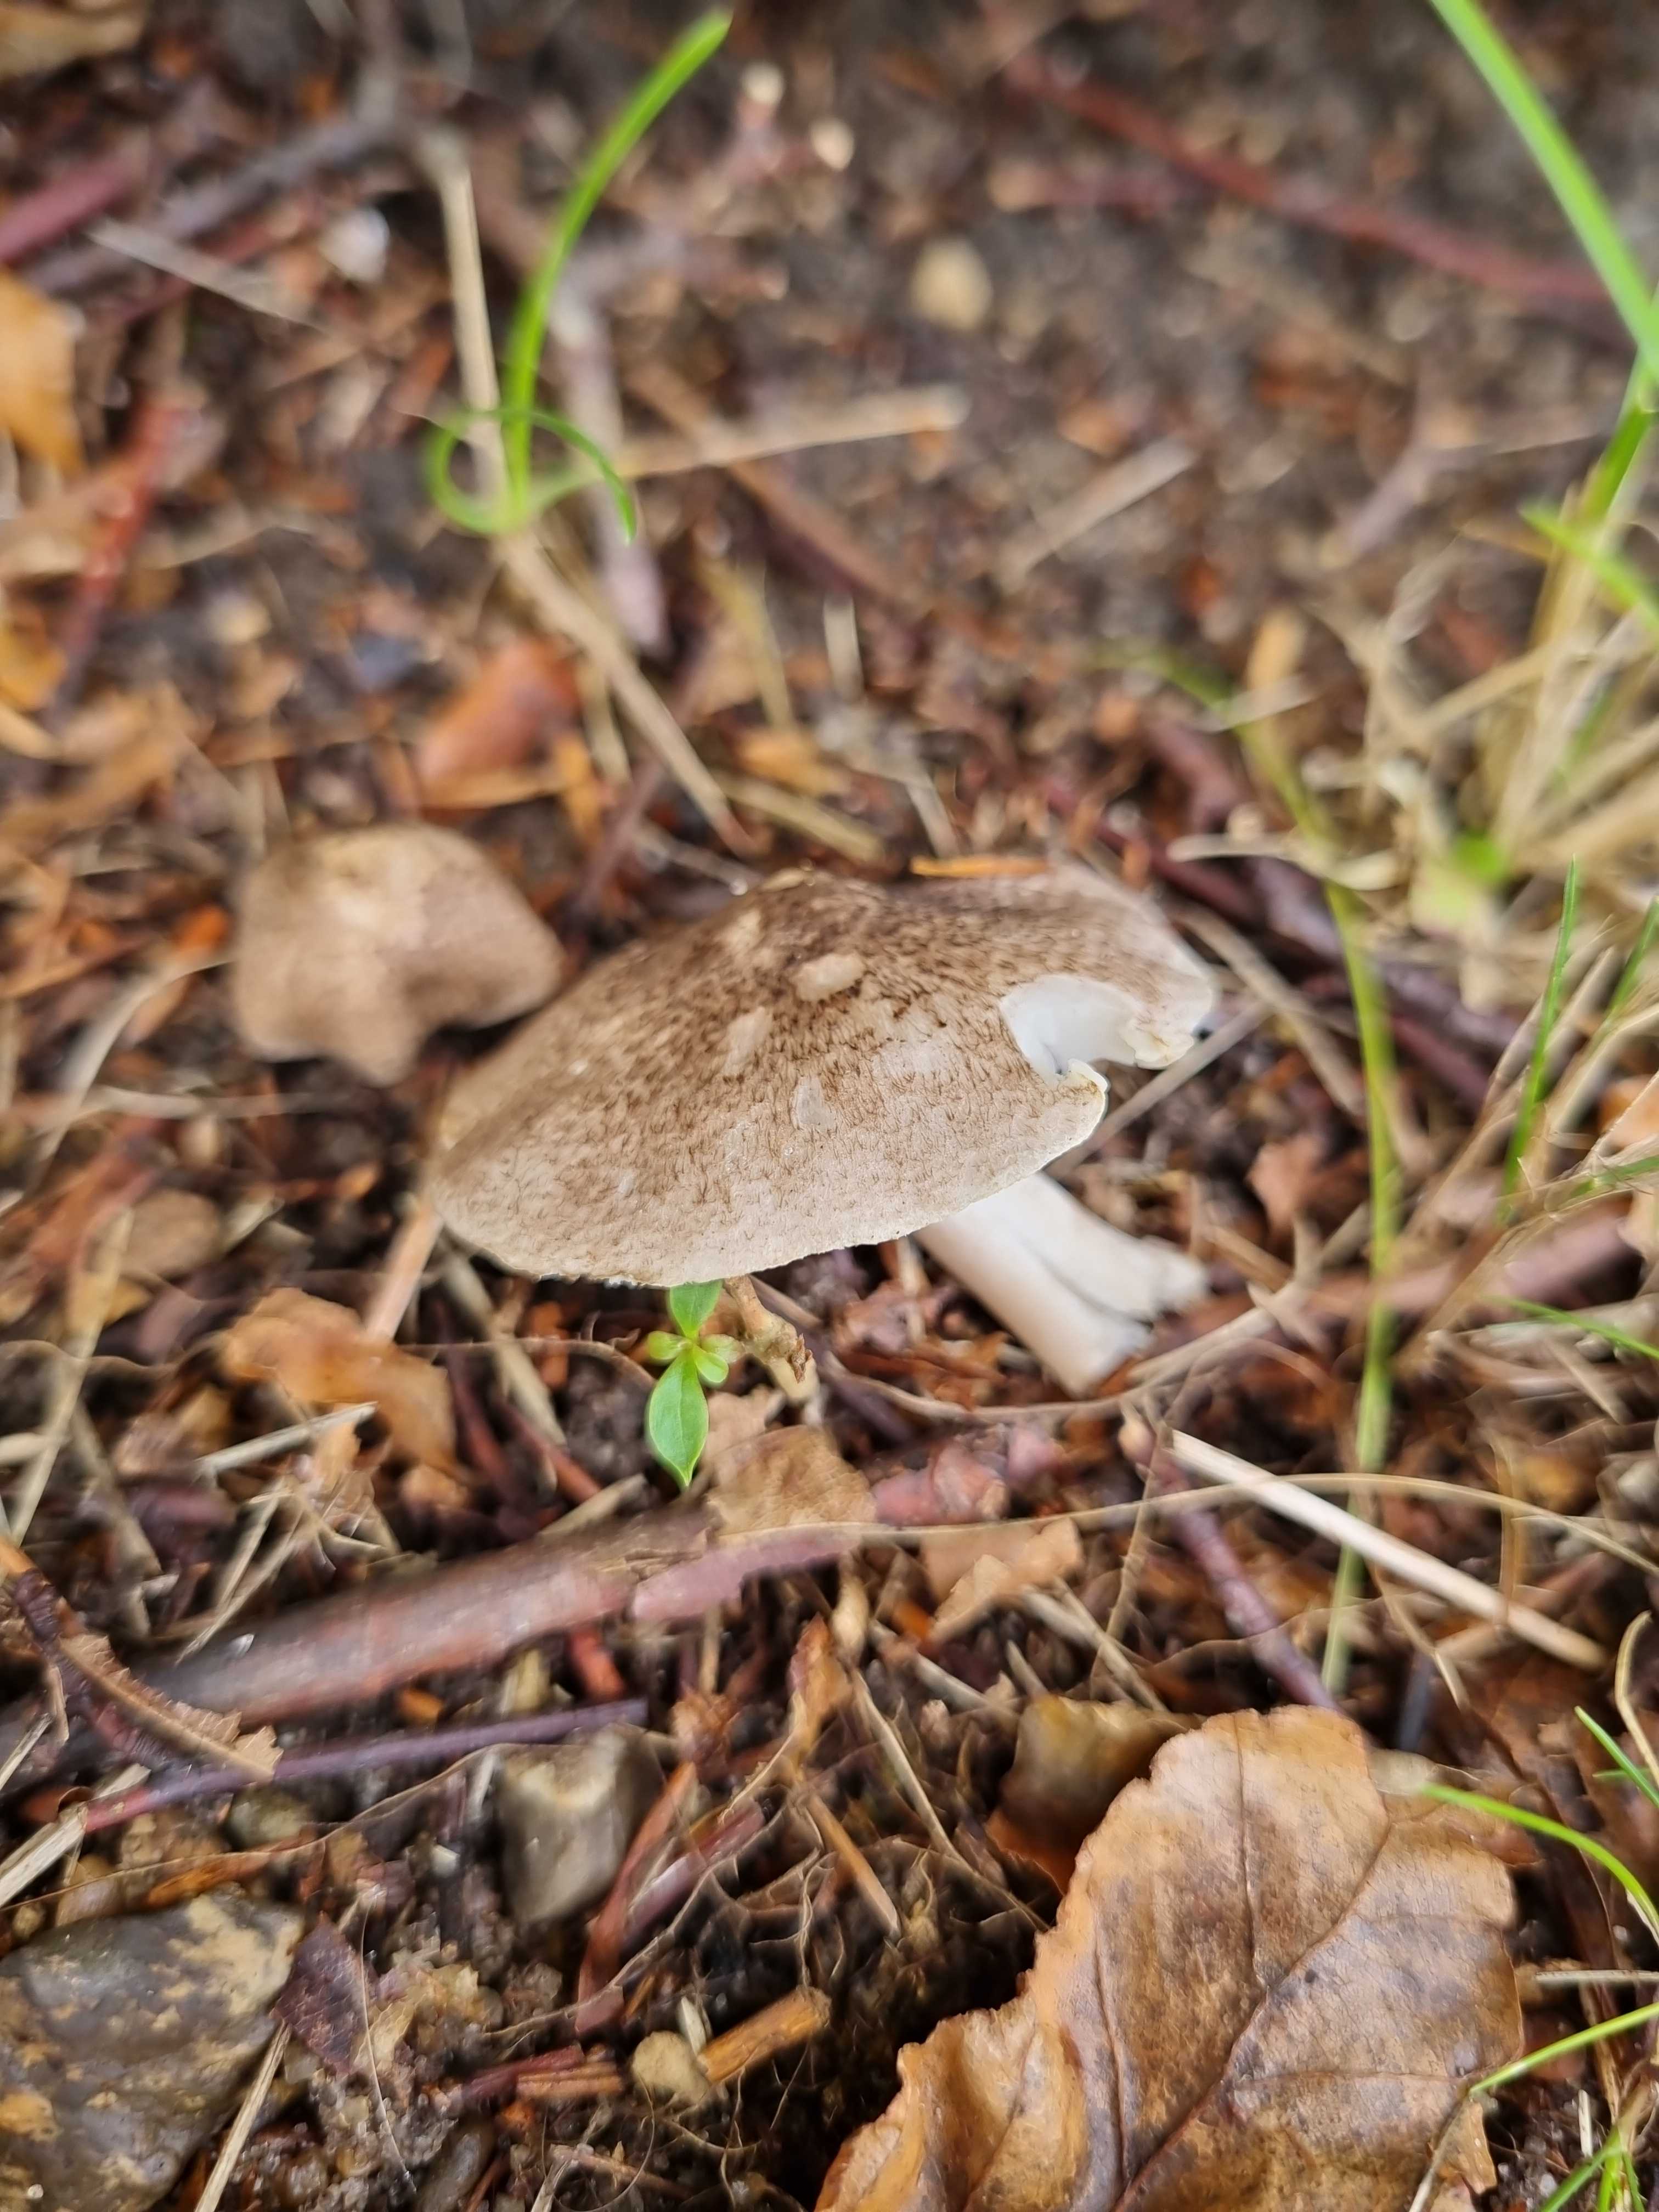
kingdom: Fungi
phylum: Basidiomycota
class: Agaricomycetes
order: Agaricales
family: Tricholomataceae
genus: Tricholoma
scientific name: Tricholoma scalpturatum
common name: gulplettet ridderhat
